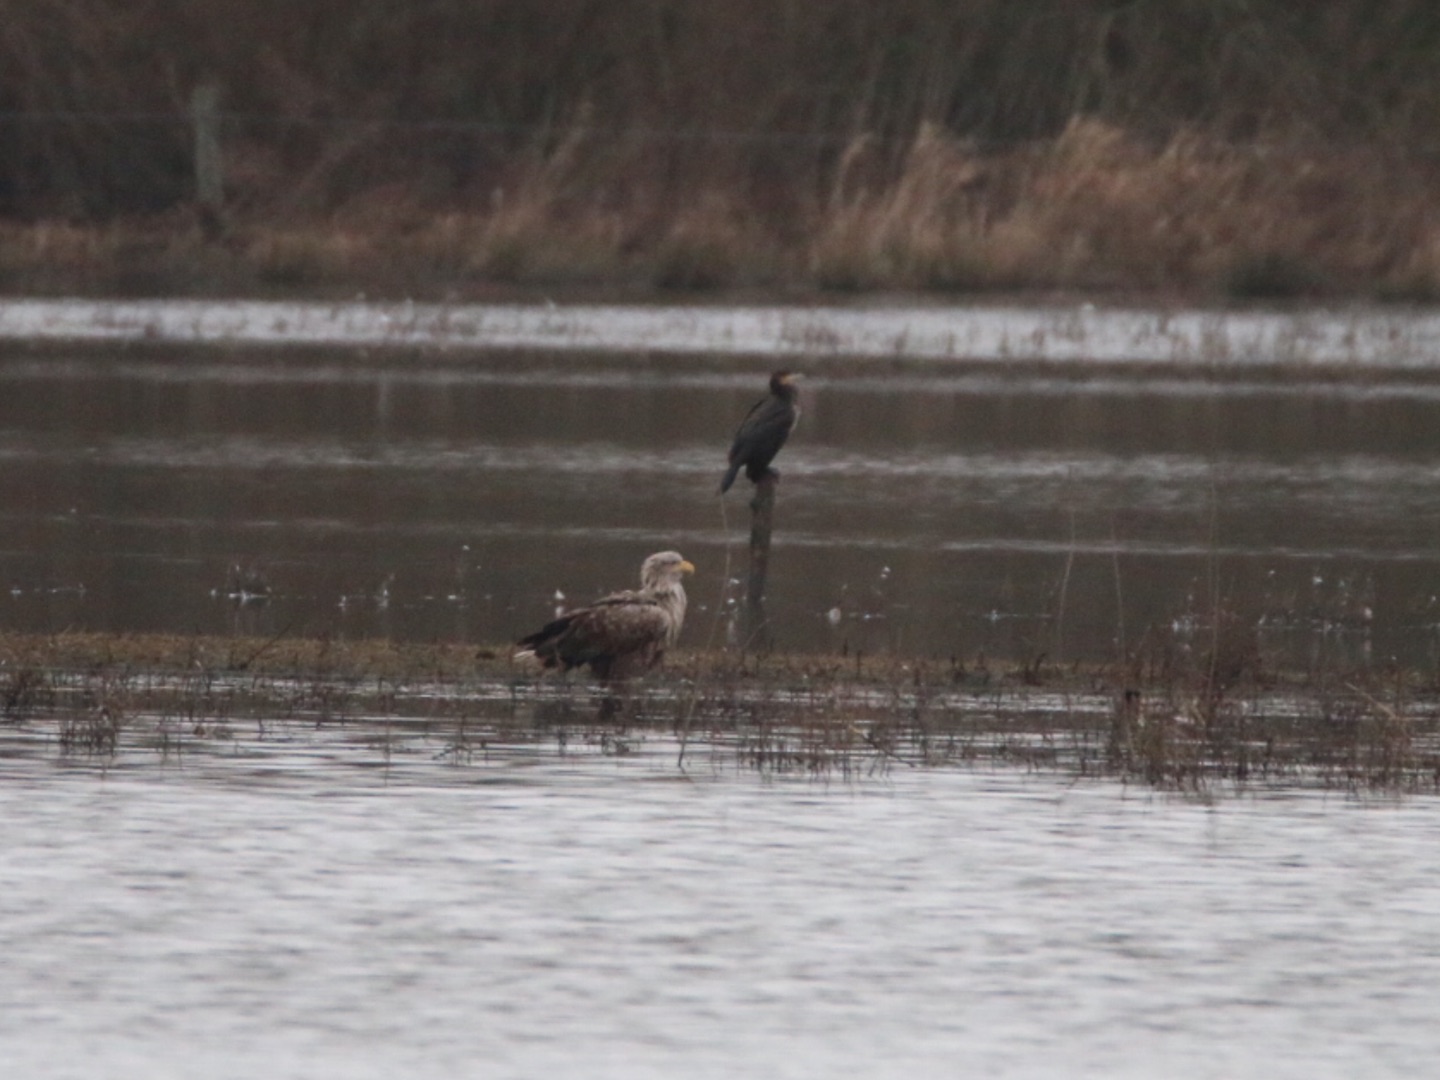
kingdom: Animalia
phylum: Chordata
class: Aves
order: Accipitriformes
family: Accipitridae
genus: Haliaeetus
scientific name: Haliaeetus albicilla
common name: Havørn
